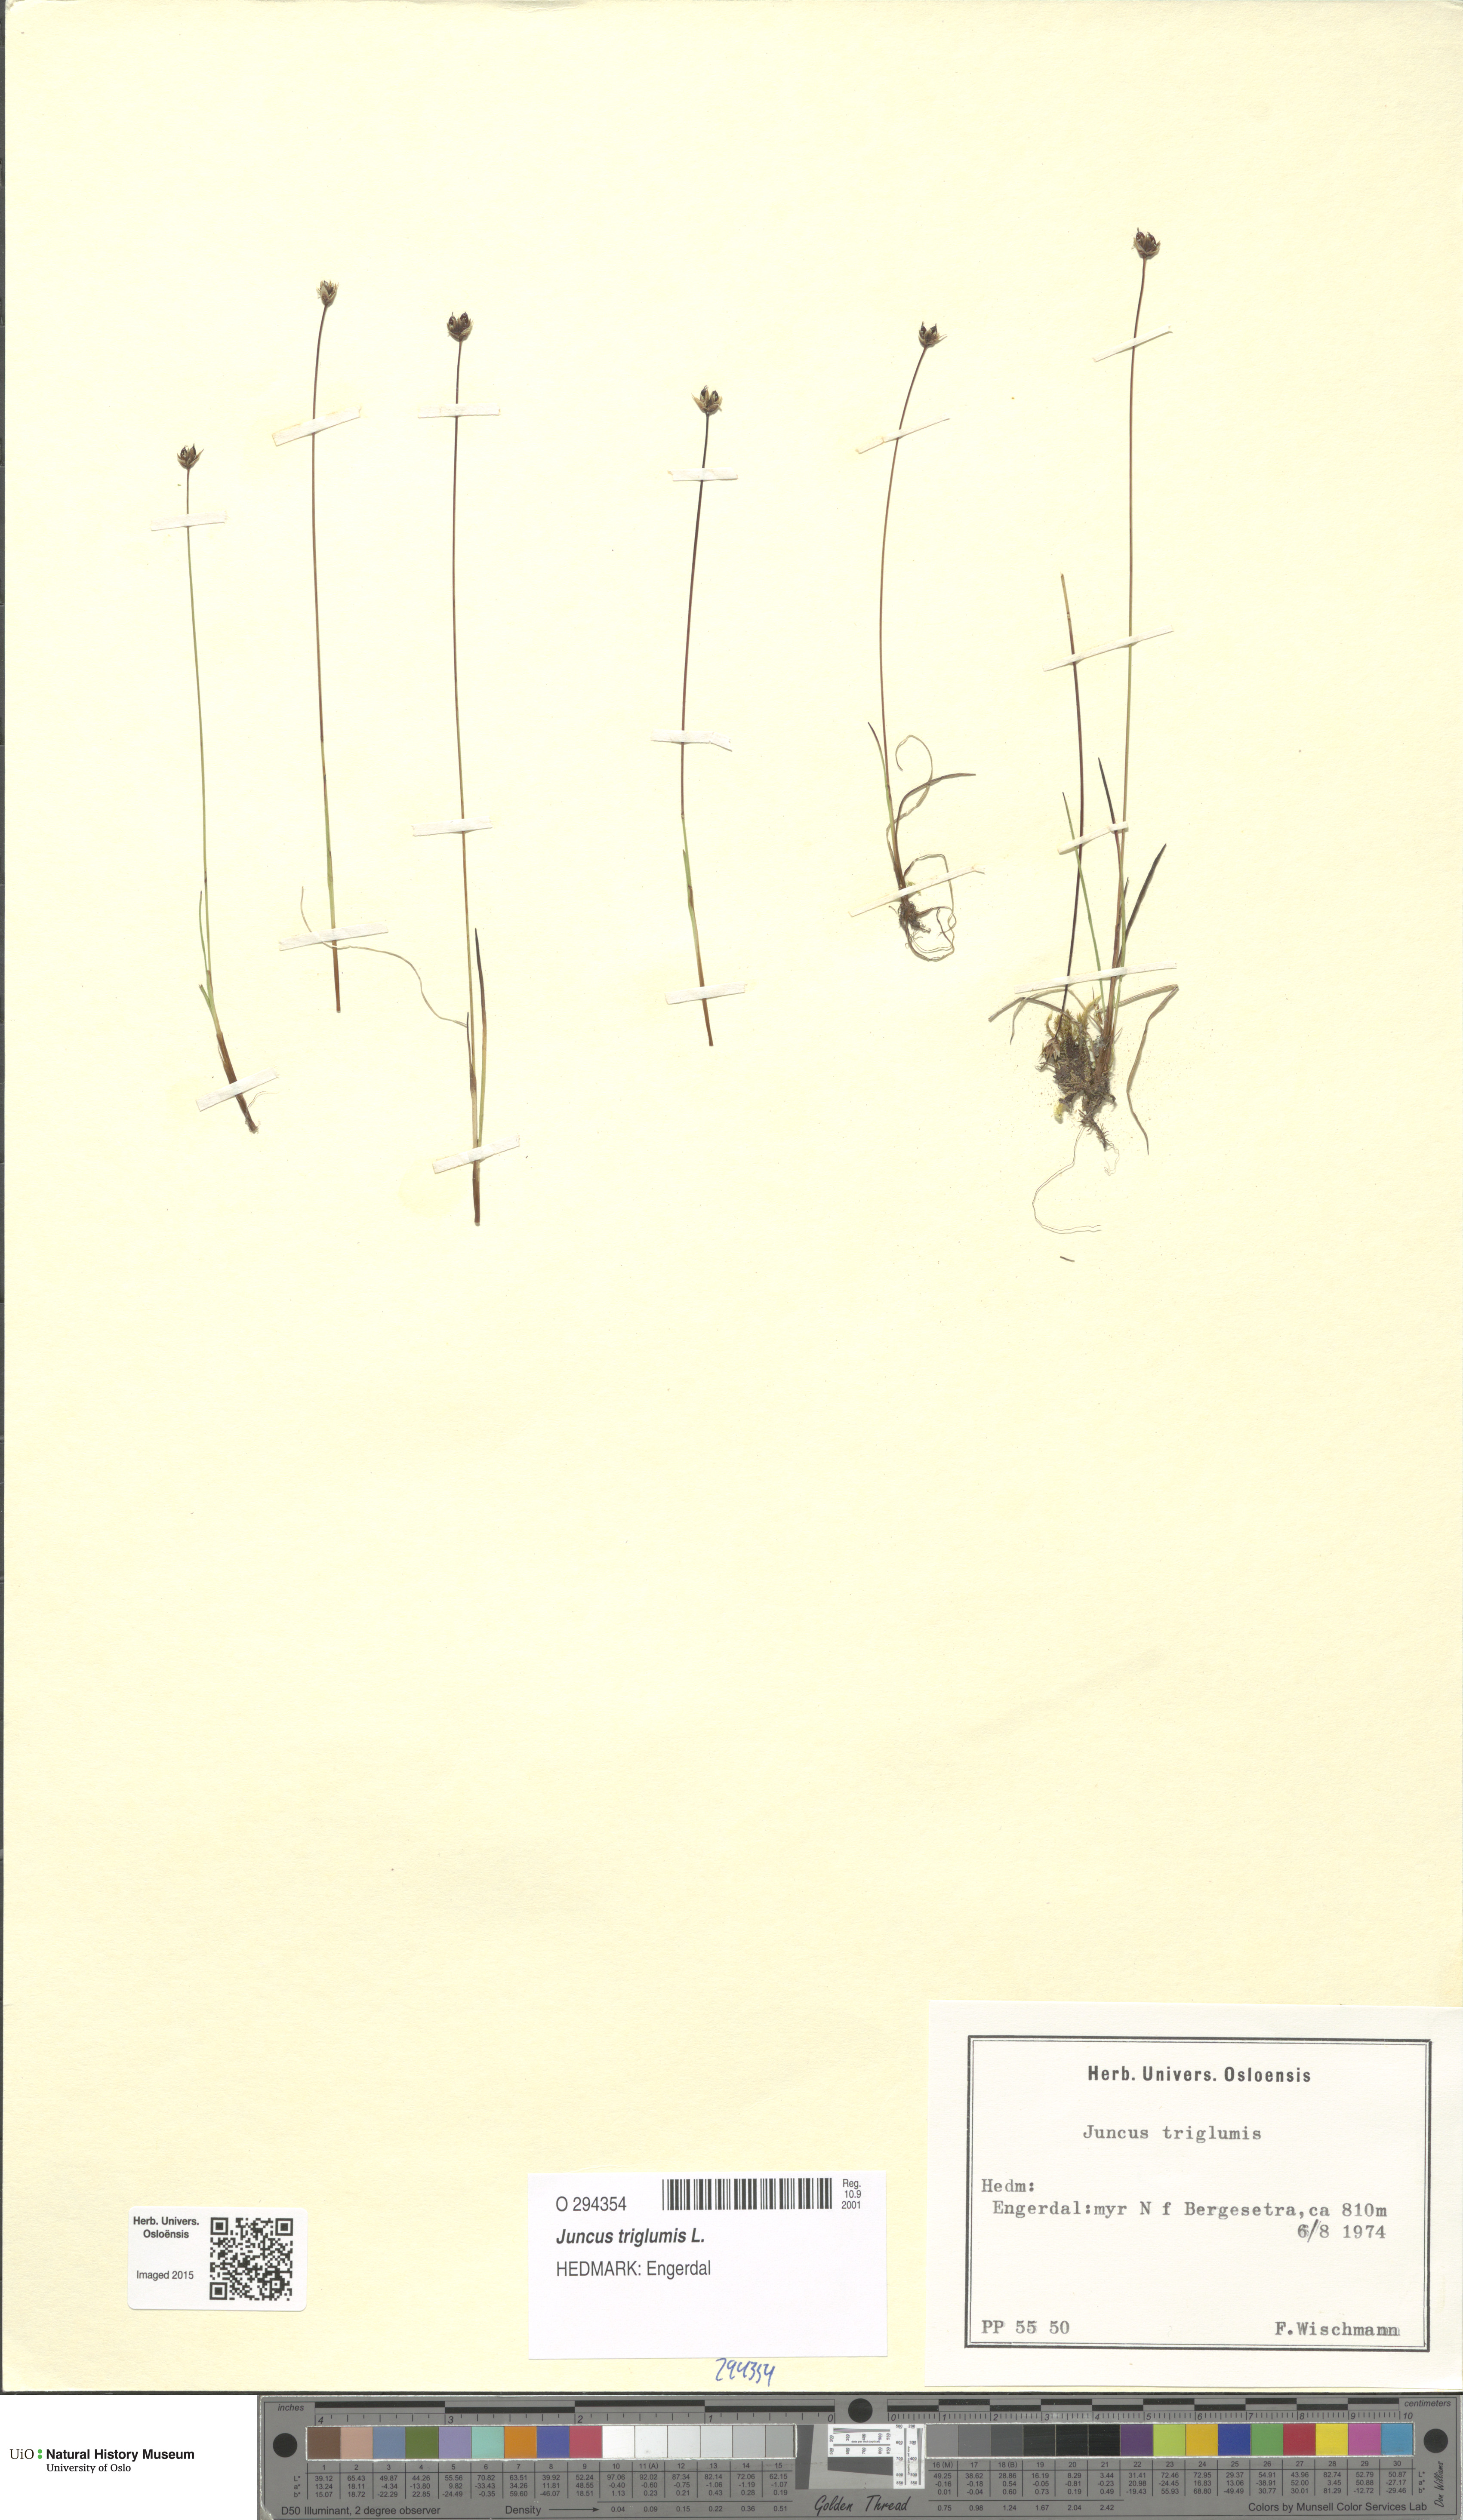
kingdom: Plantae
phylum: Tracheophyta
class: Liliopsida
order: Poales
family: Juncaceae
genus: Juncus
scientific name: Juncus triglumis
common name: Three-flowered rush
